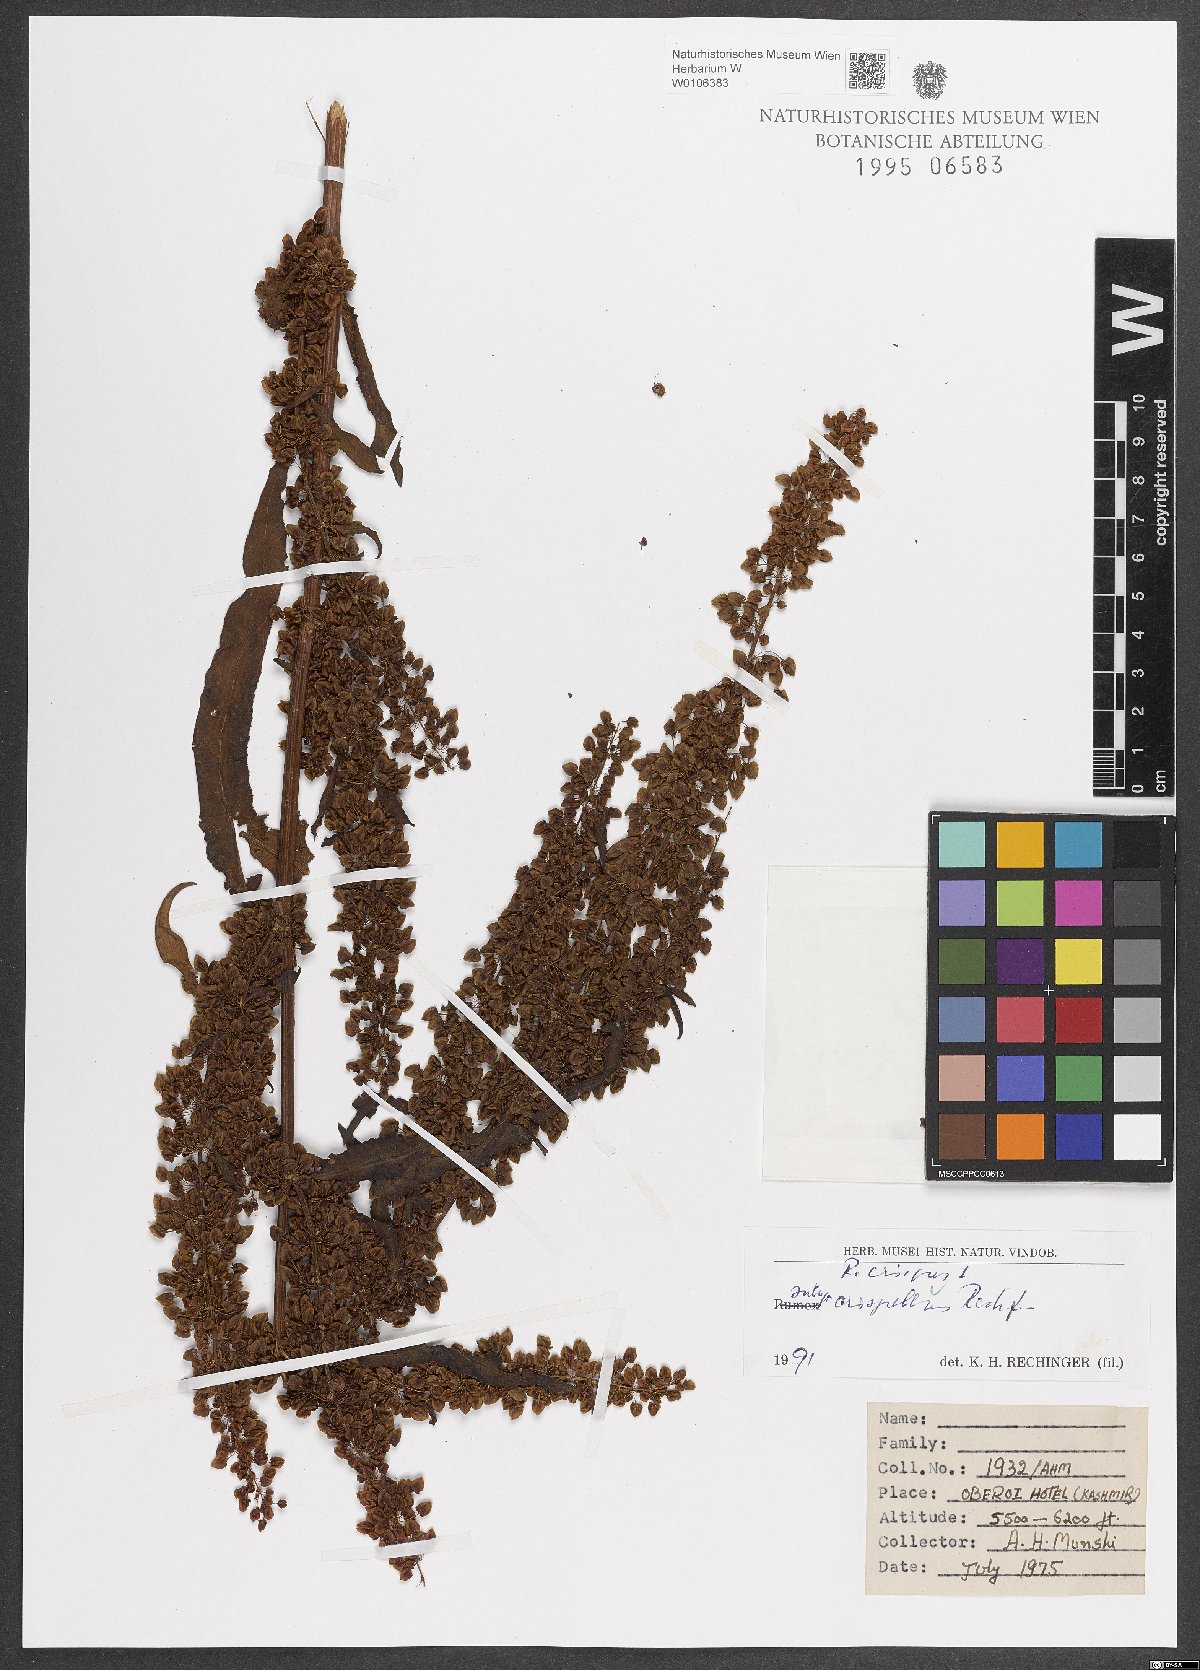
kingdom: Plantae
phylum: Tracheophyta
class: Magnoliopsida
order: Caryophyllales
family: Polygonaceae
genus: Rumex
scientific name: Rumex crispus
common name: Curled dock
